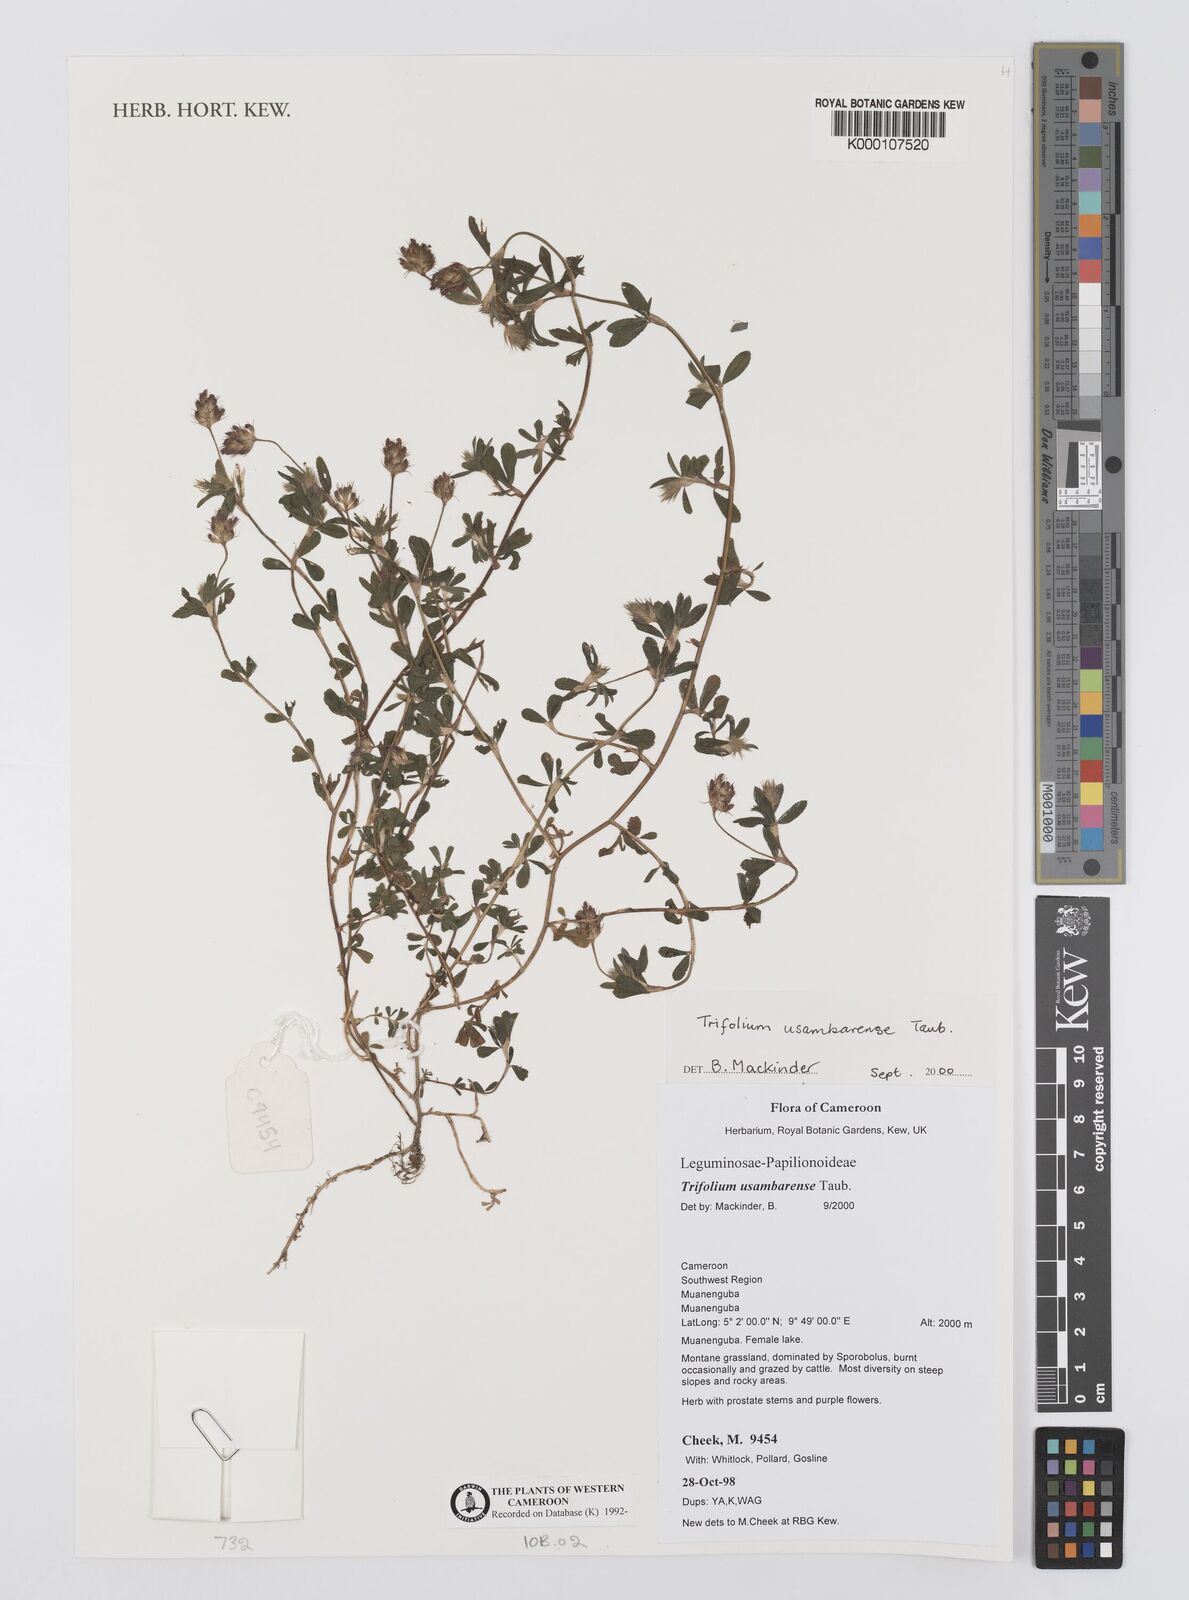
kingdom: Plantae
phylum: Tracheophyta
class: Magnoliopsida
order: Fabales
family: Fabaceae
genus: Trifolium
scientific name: Trifolium usambarense
